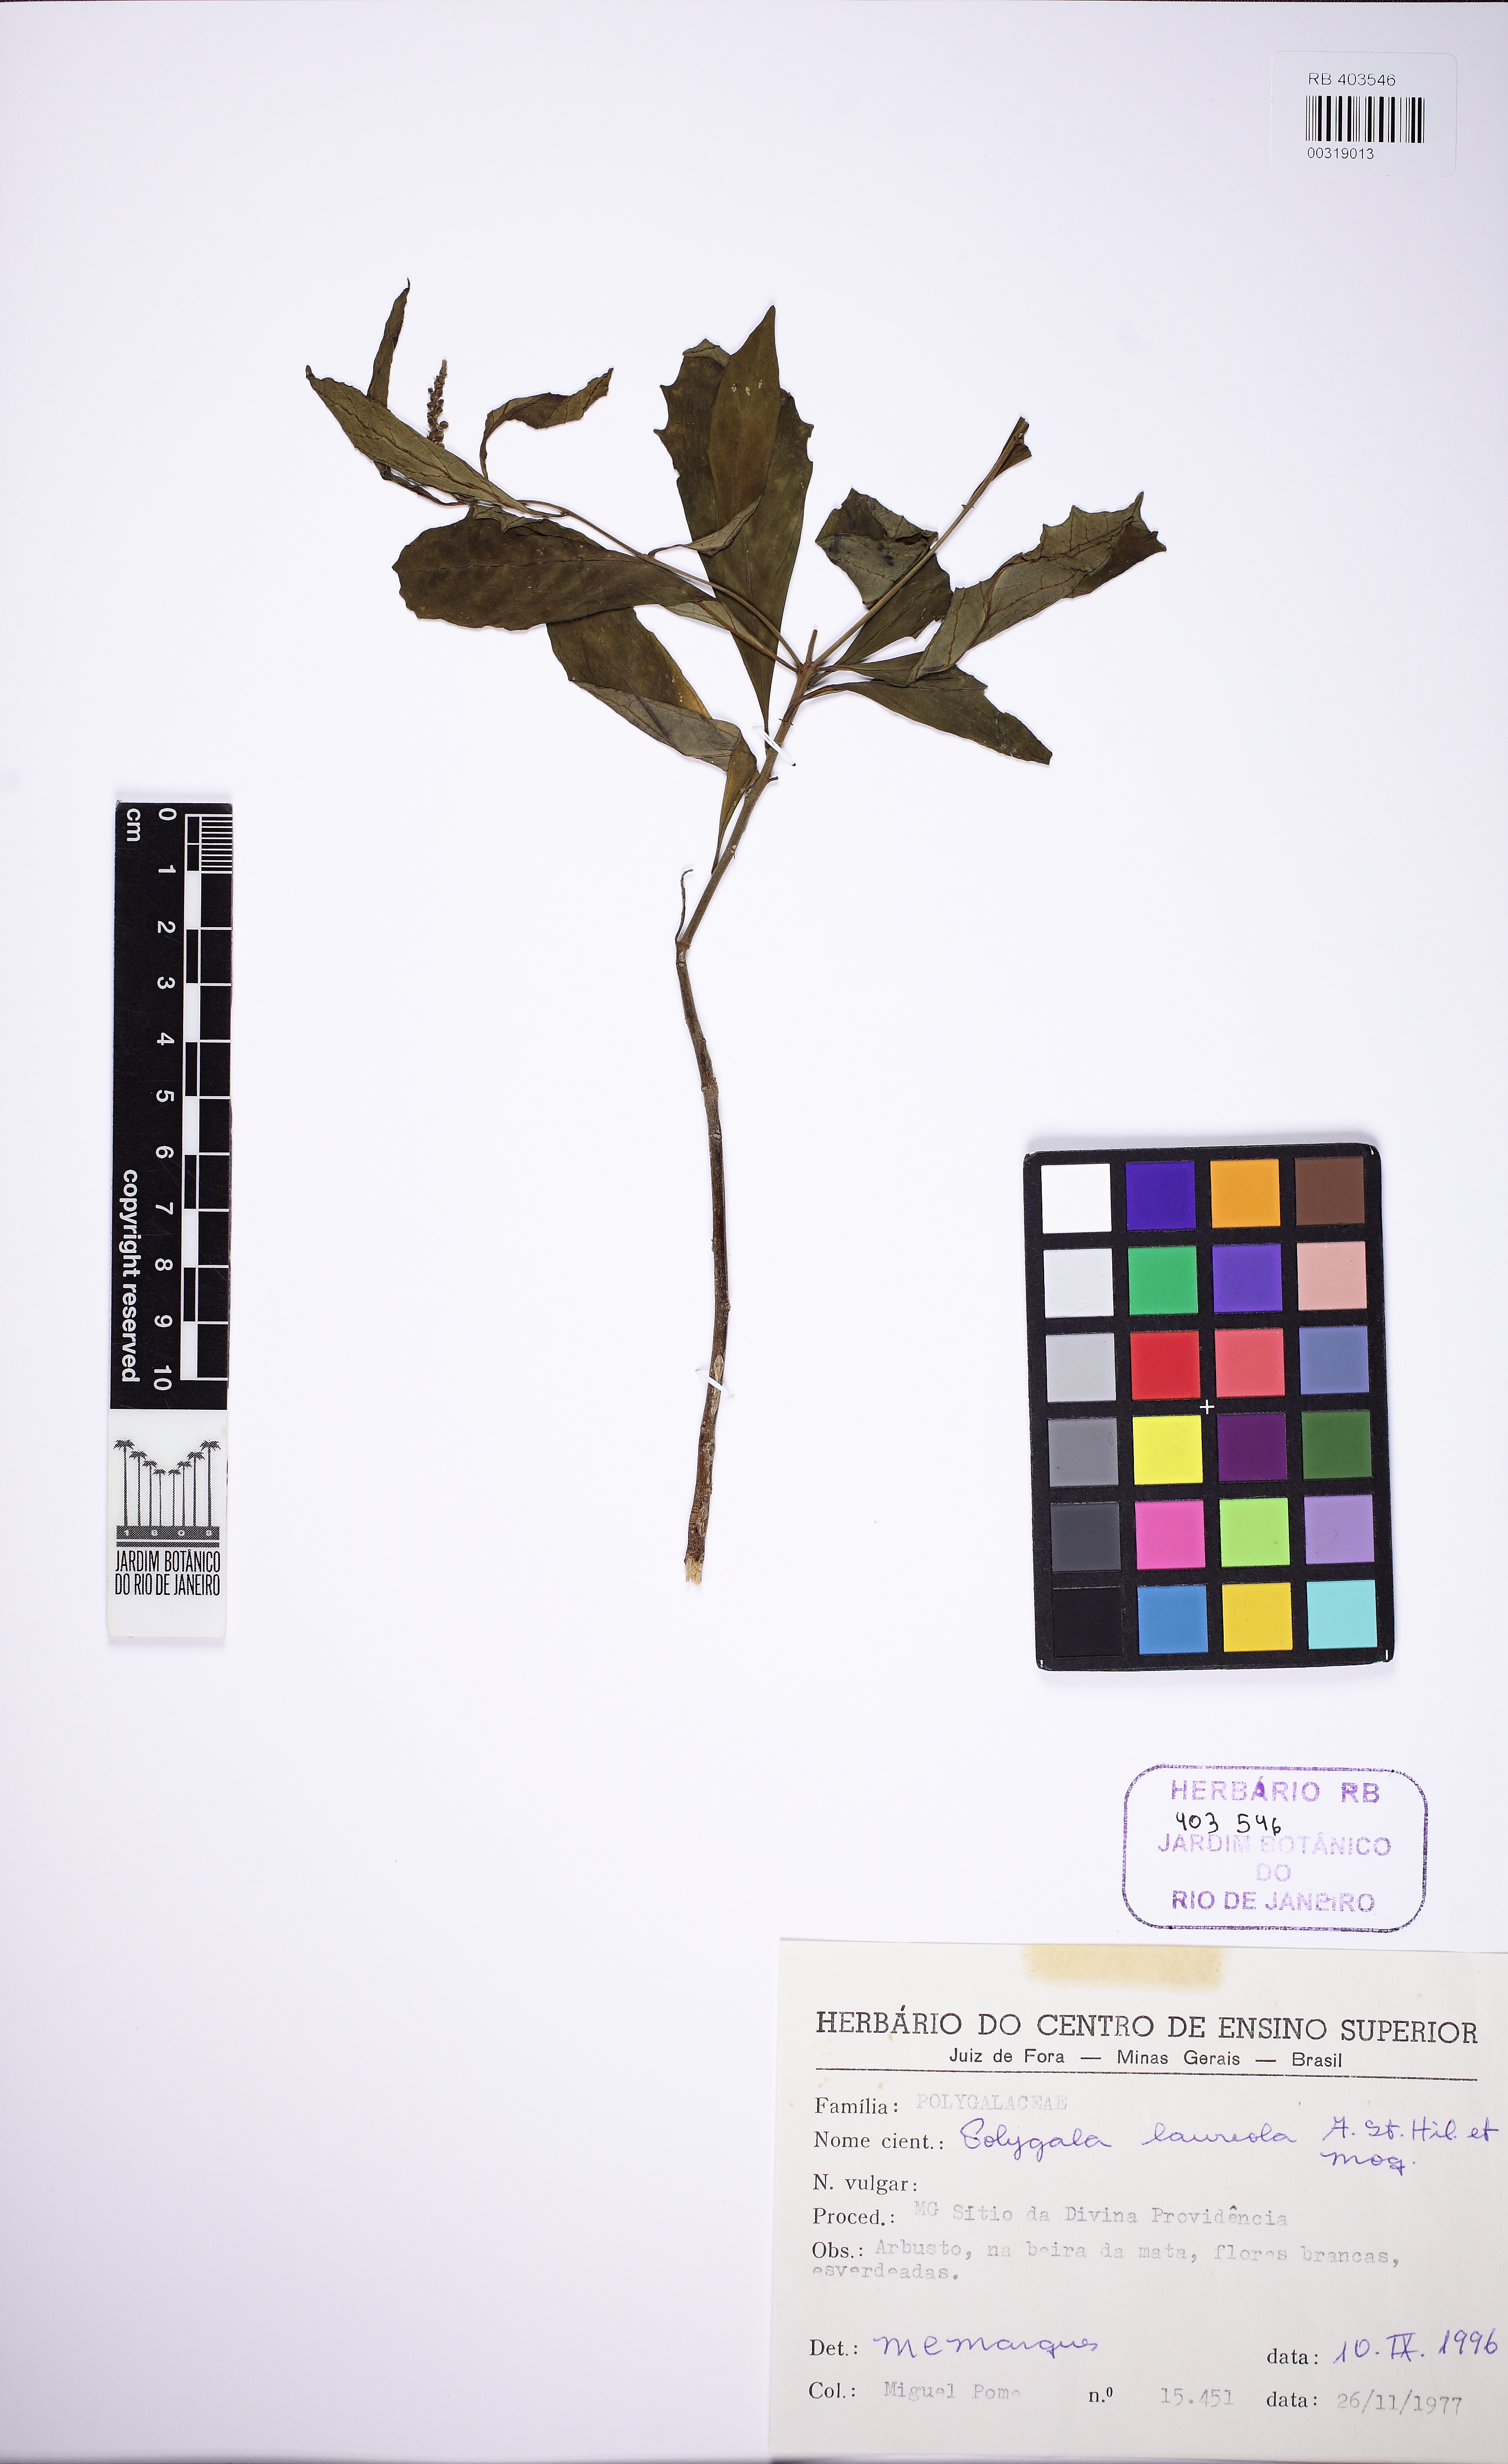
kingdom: Plantae
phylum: Tracheophyta
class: Magnoliopsida
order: Fabales
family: Polygalaceae
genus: Caamembeca
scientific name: Caamembeca salicifolia
